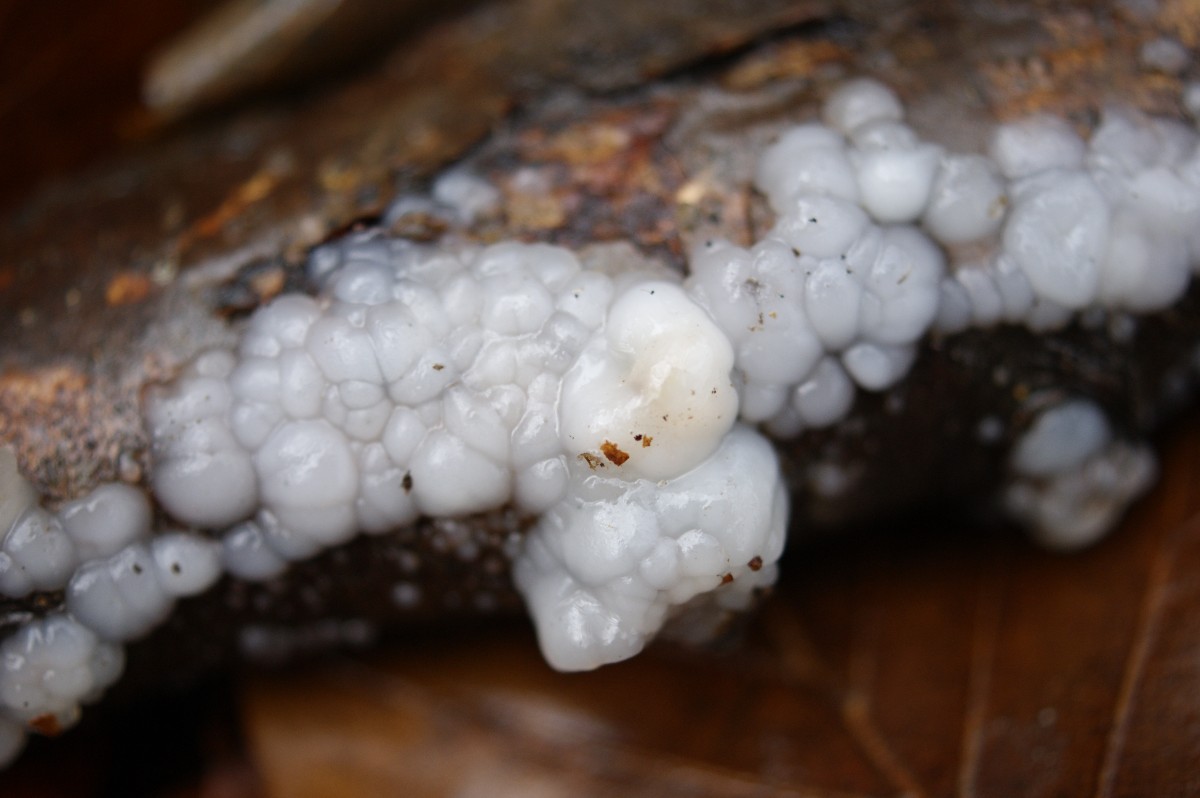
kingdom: Fungi
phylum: Basidiomycota
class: Agaricomycetes
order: Auriculariales
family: Auriculariaceae
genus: Exidia
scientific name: Exidia thuretiana
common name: hvidlig bævretop
